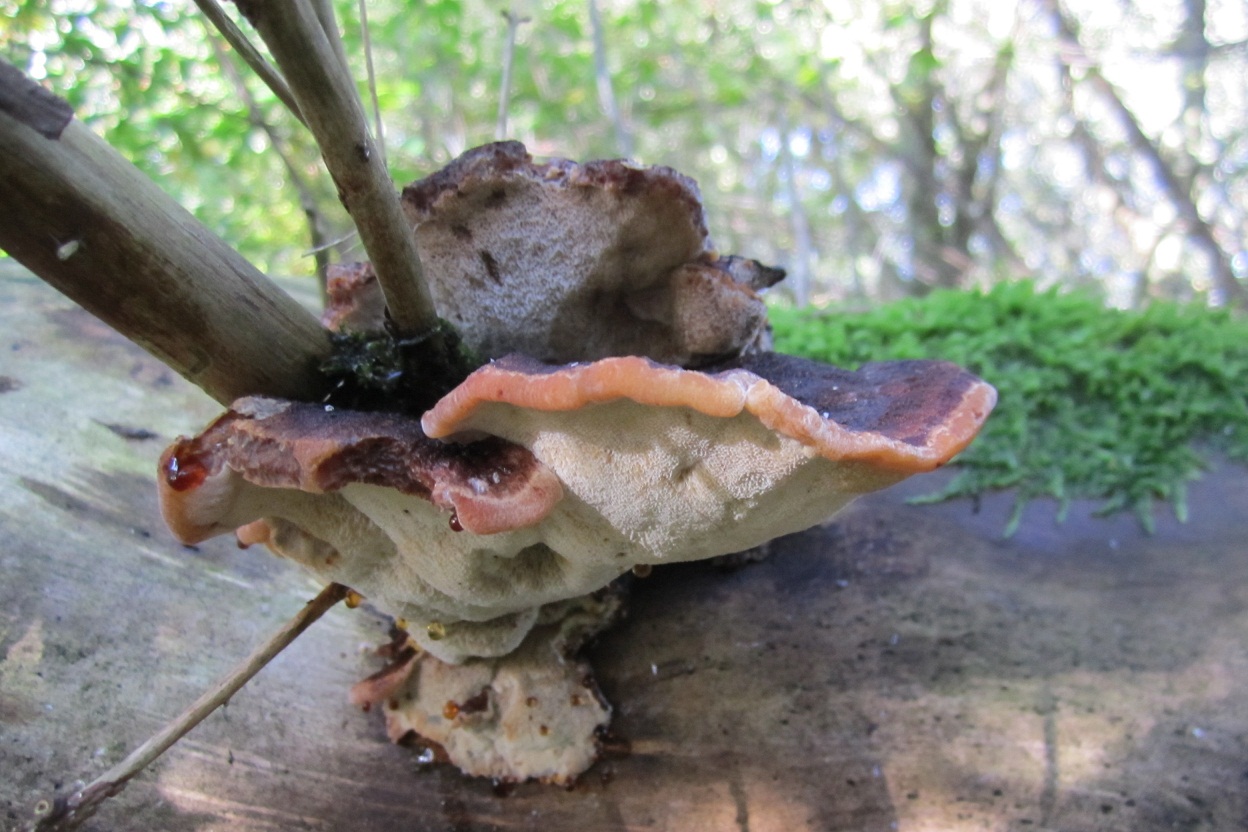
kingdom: Fungi
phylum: Basidiomycota
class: Agaricomycetes
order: Polyporales
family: Ischnodermataceae
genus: Ischnoderma
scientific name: Ischnoderma benzoinum
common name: gran-tjæreporesvamp
